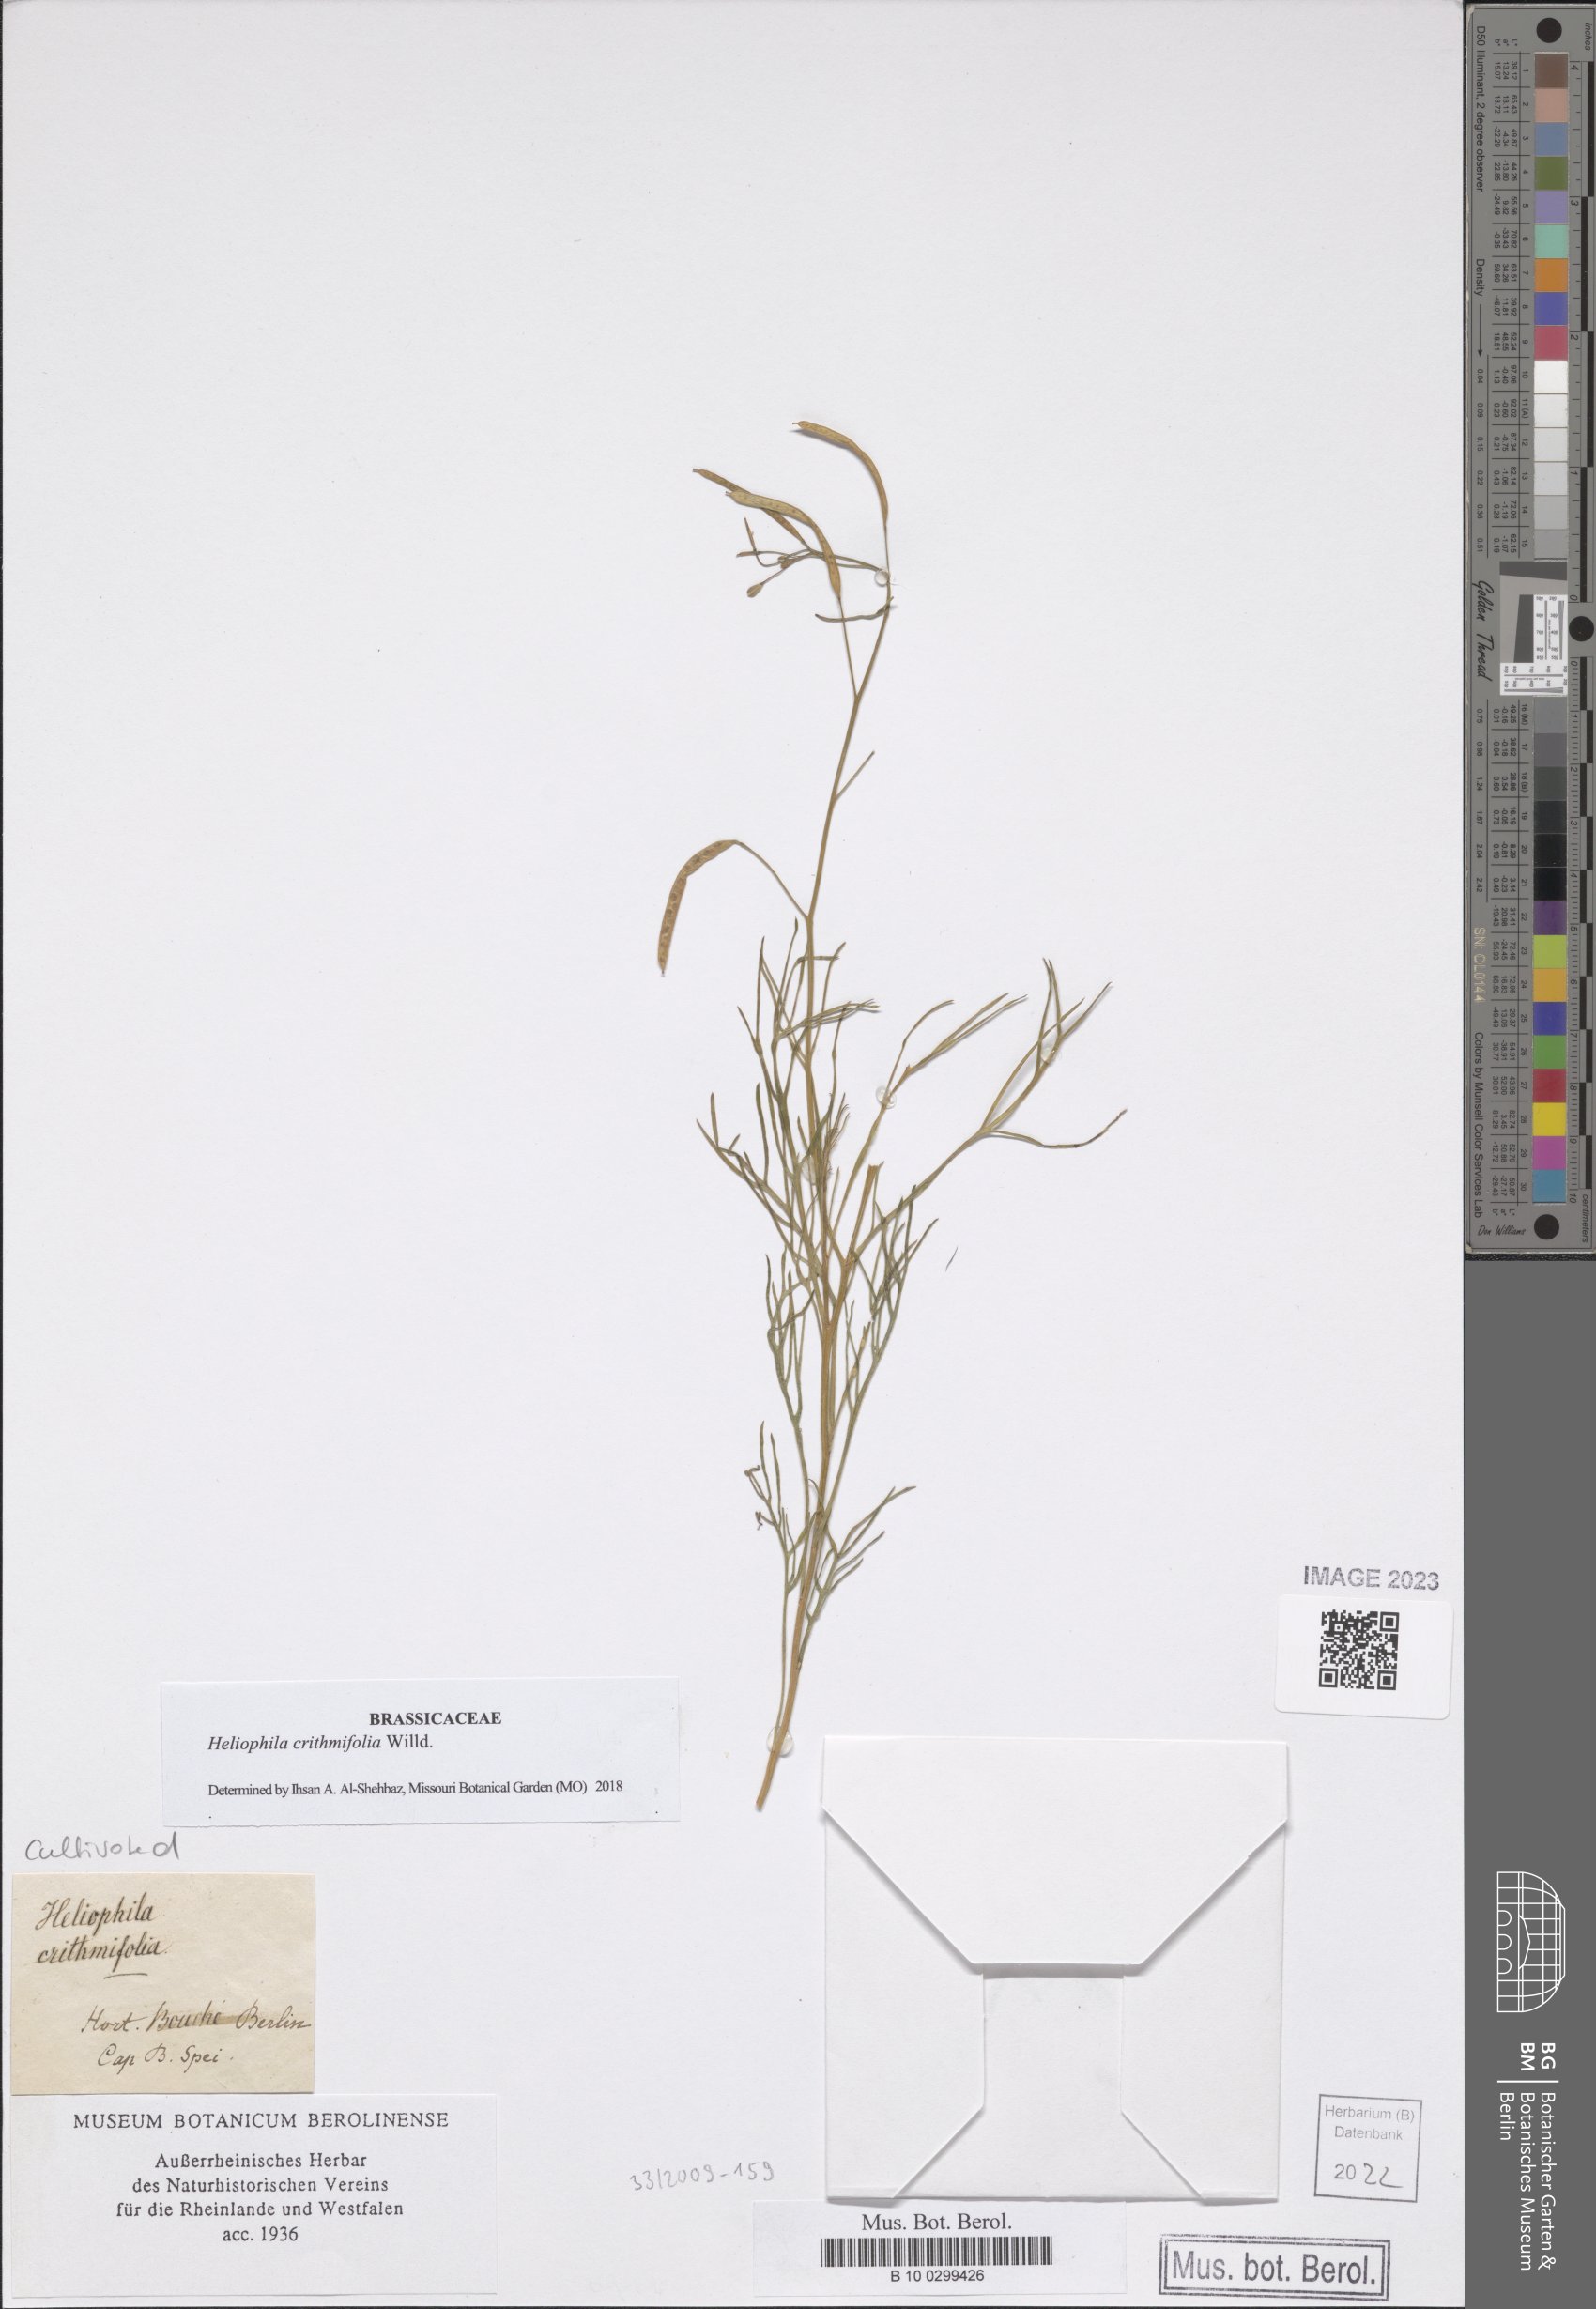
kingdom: Plantae
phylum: Tracheophyta
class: Magnoliopsida
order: Brassicales
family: Brassicaceae
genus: Heliophila
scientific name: Heliophila crithmifolia
